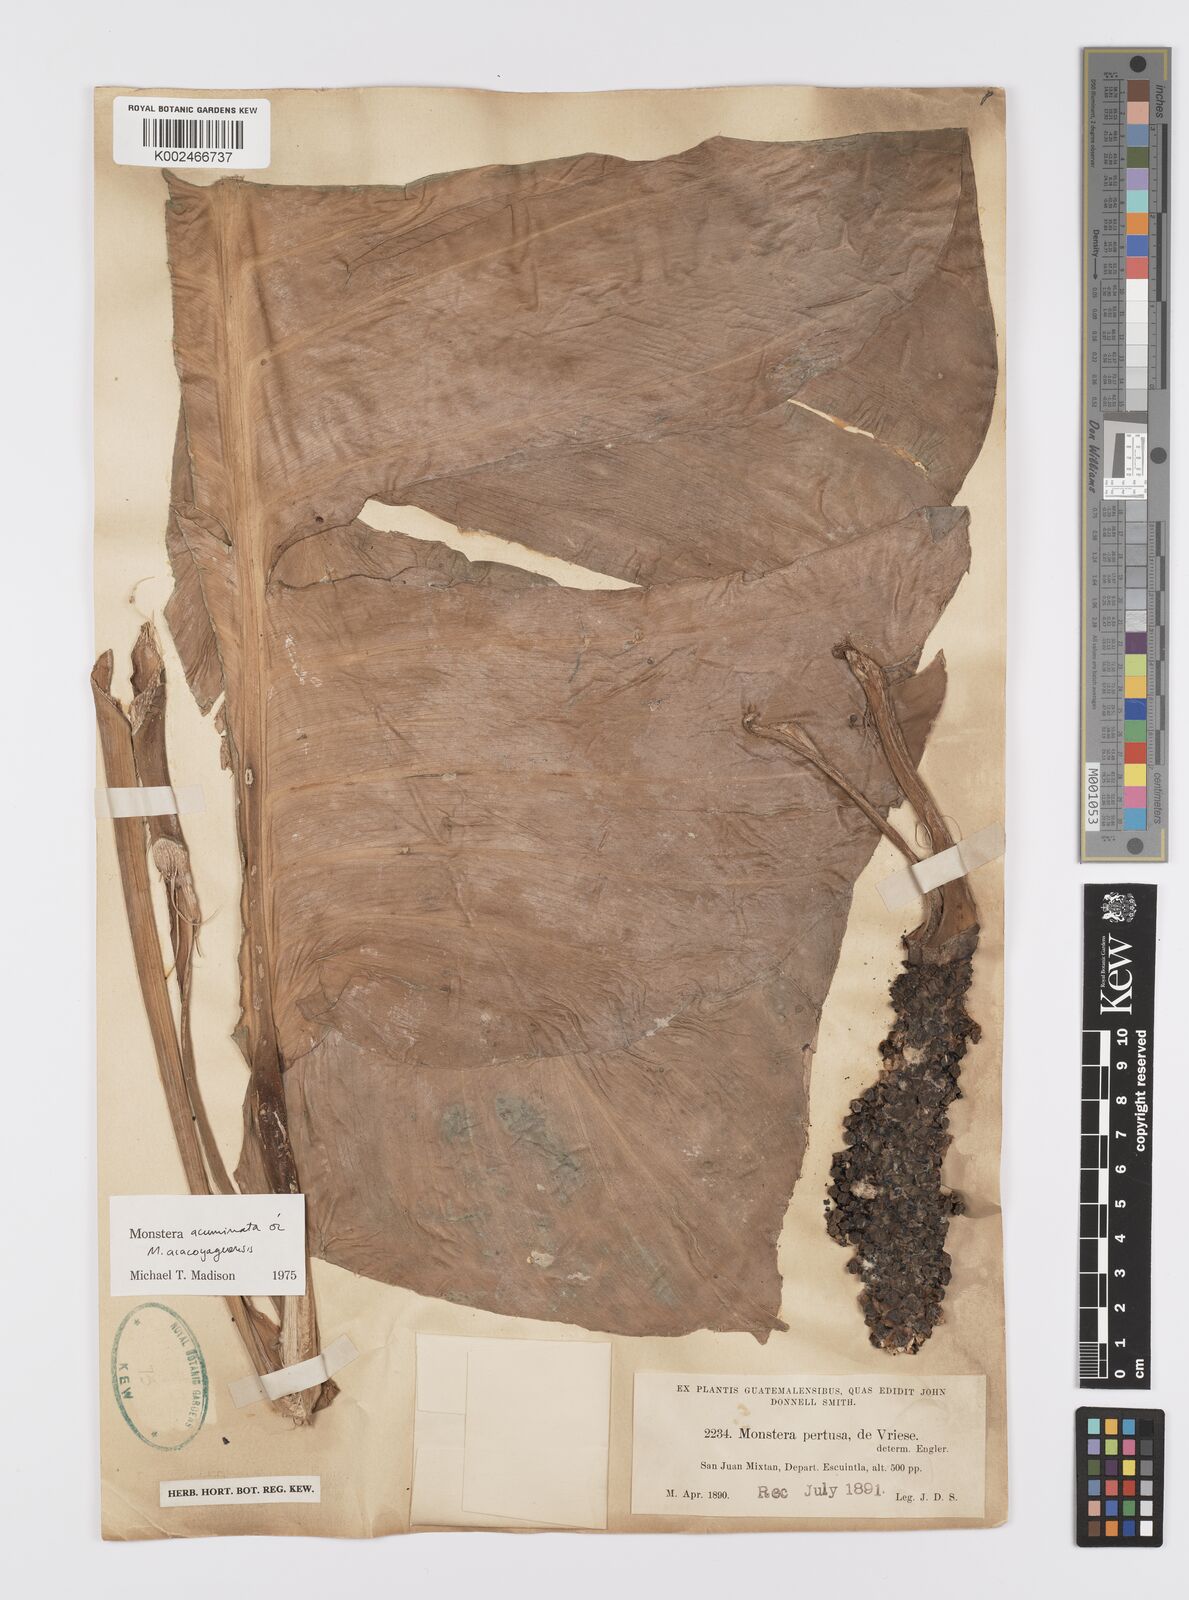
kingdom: Plantae
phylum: Tracheophyta
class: Liliopsida
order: Alismatales
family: Araceae
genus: Monstera
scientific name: Monstera acuminata
